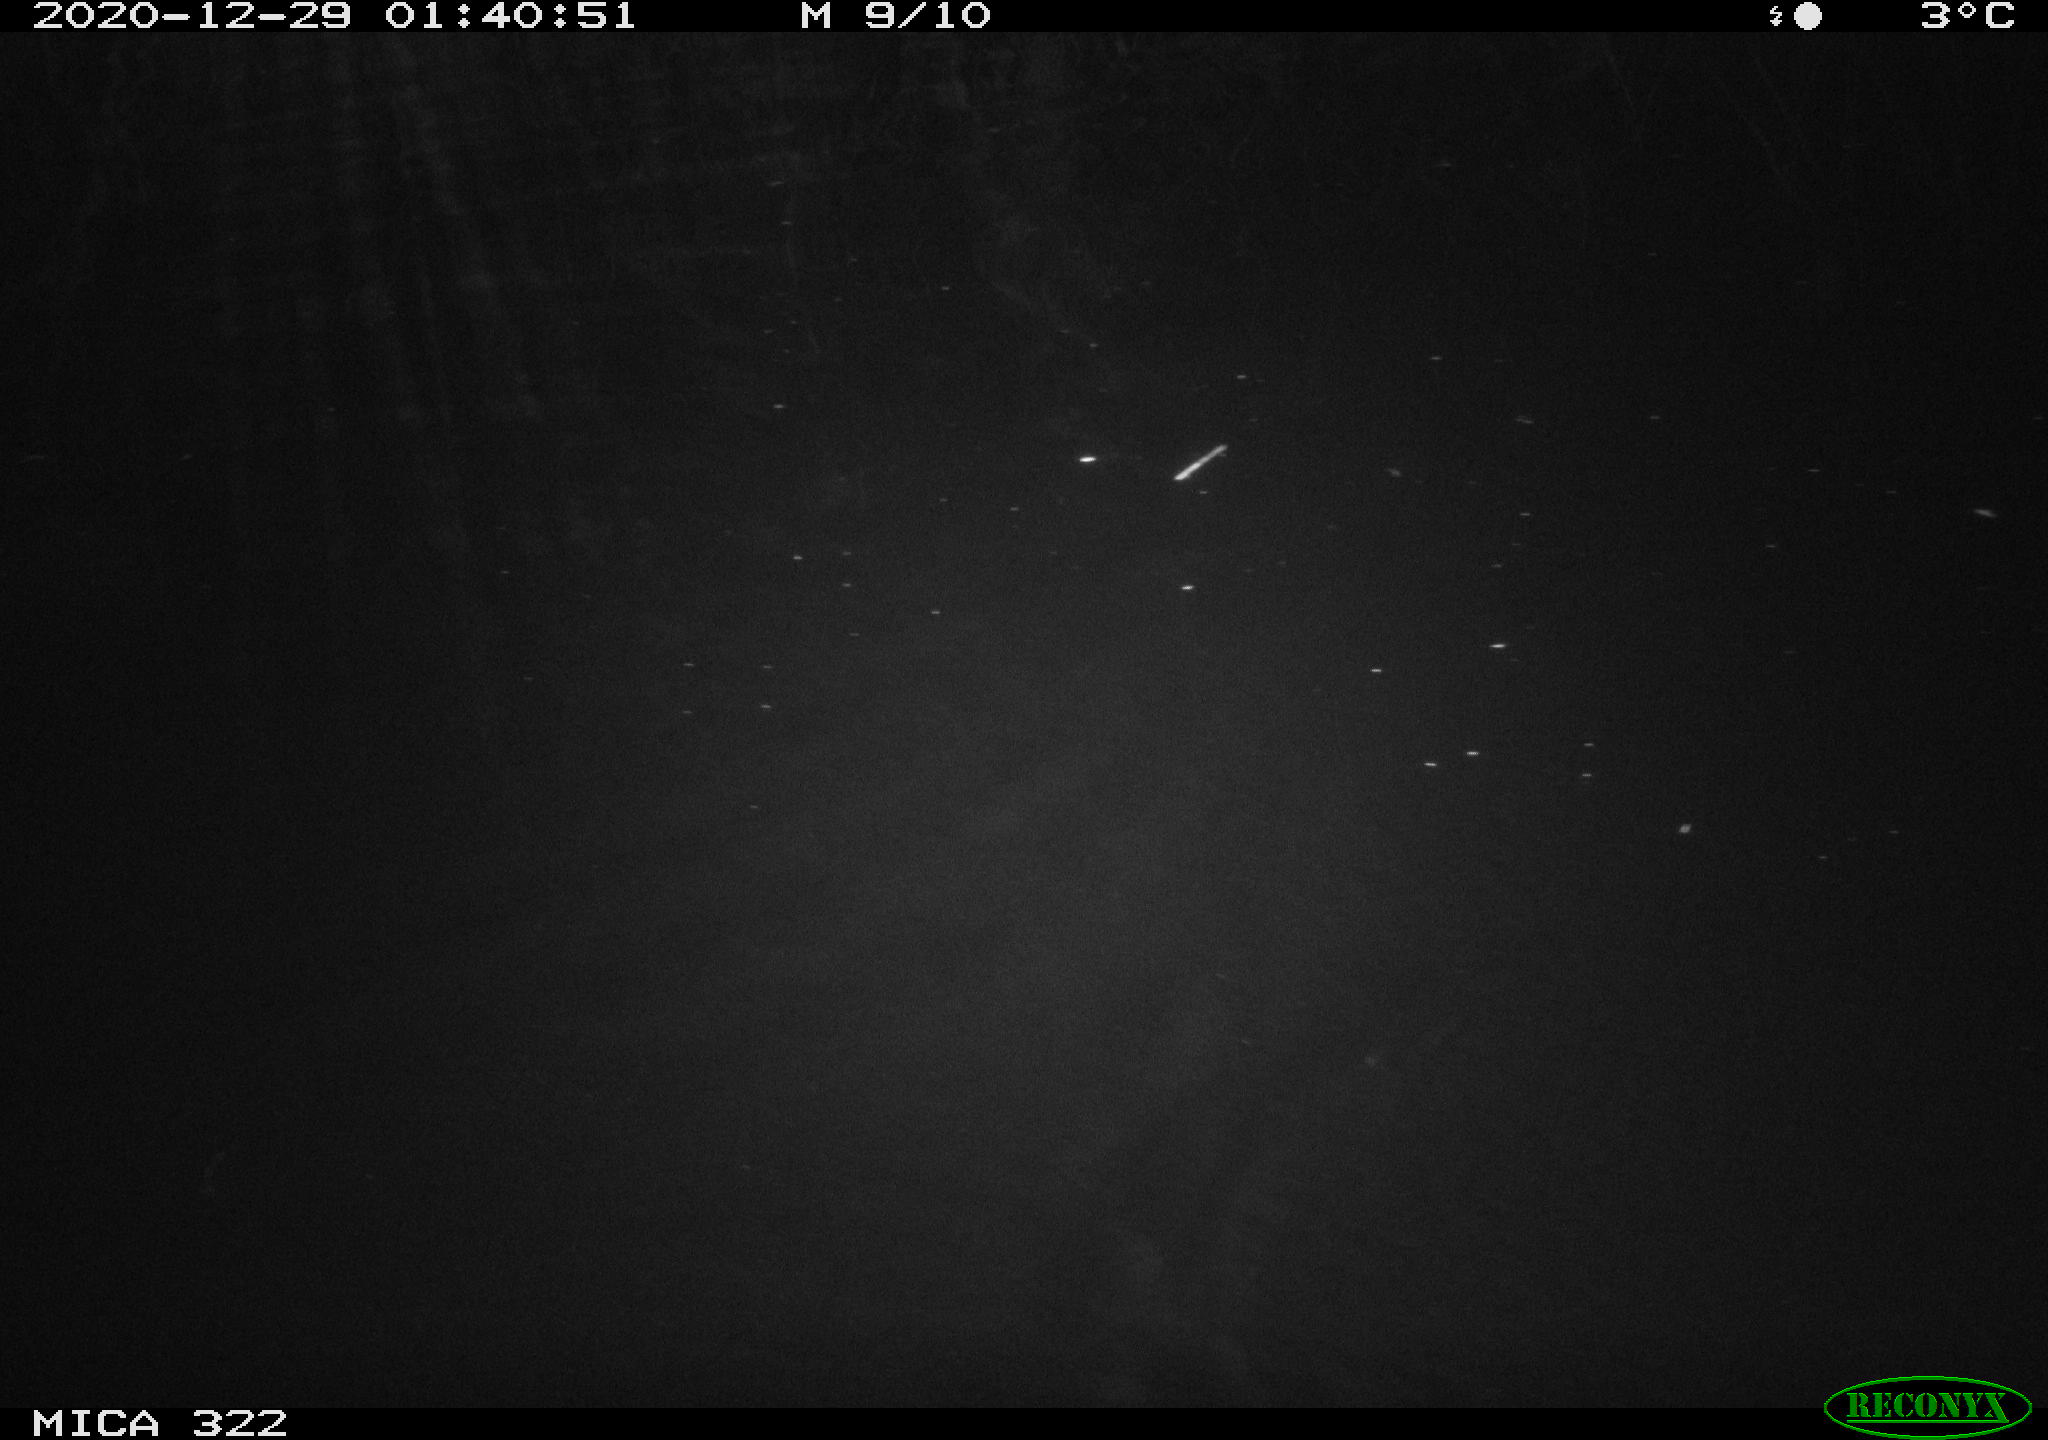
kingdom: Animalia
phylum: Chordata
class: Mammalia
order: Rodentia
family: Cricetidae
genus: Ondatra
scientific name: Ondatra zibethicus
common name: Muskrat
